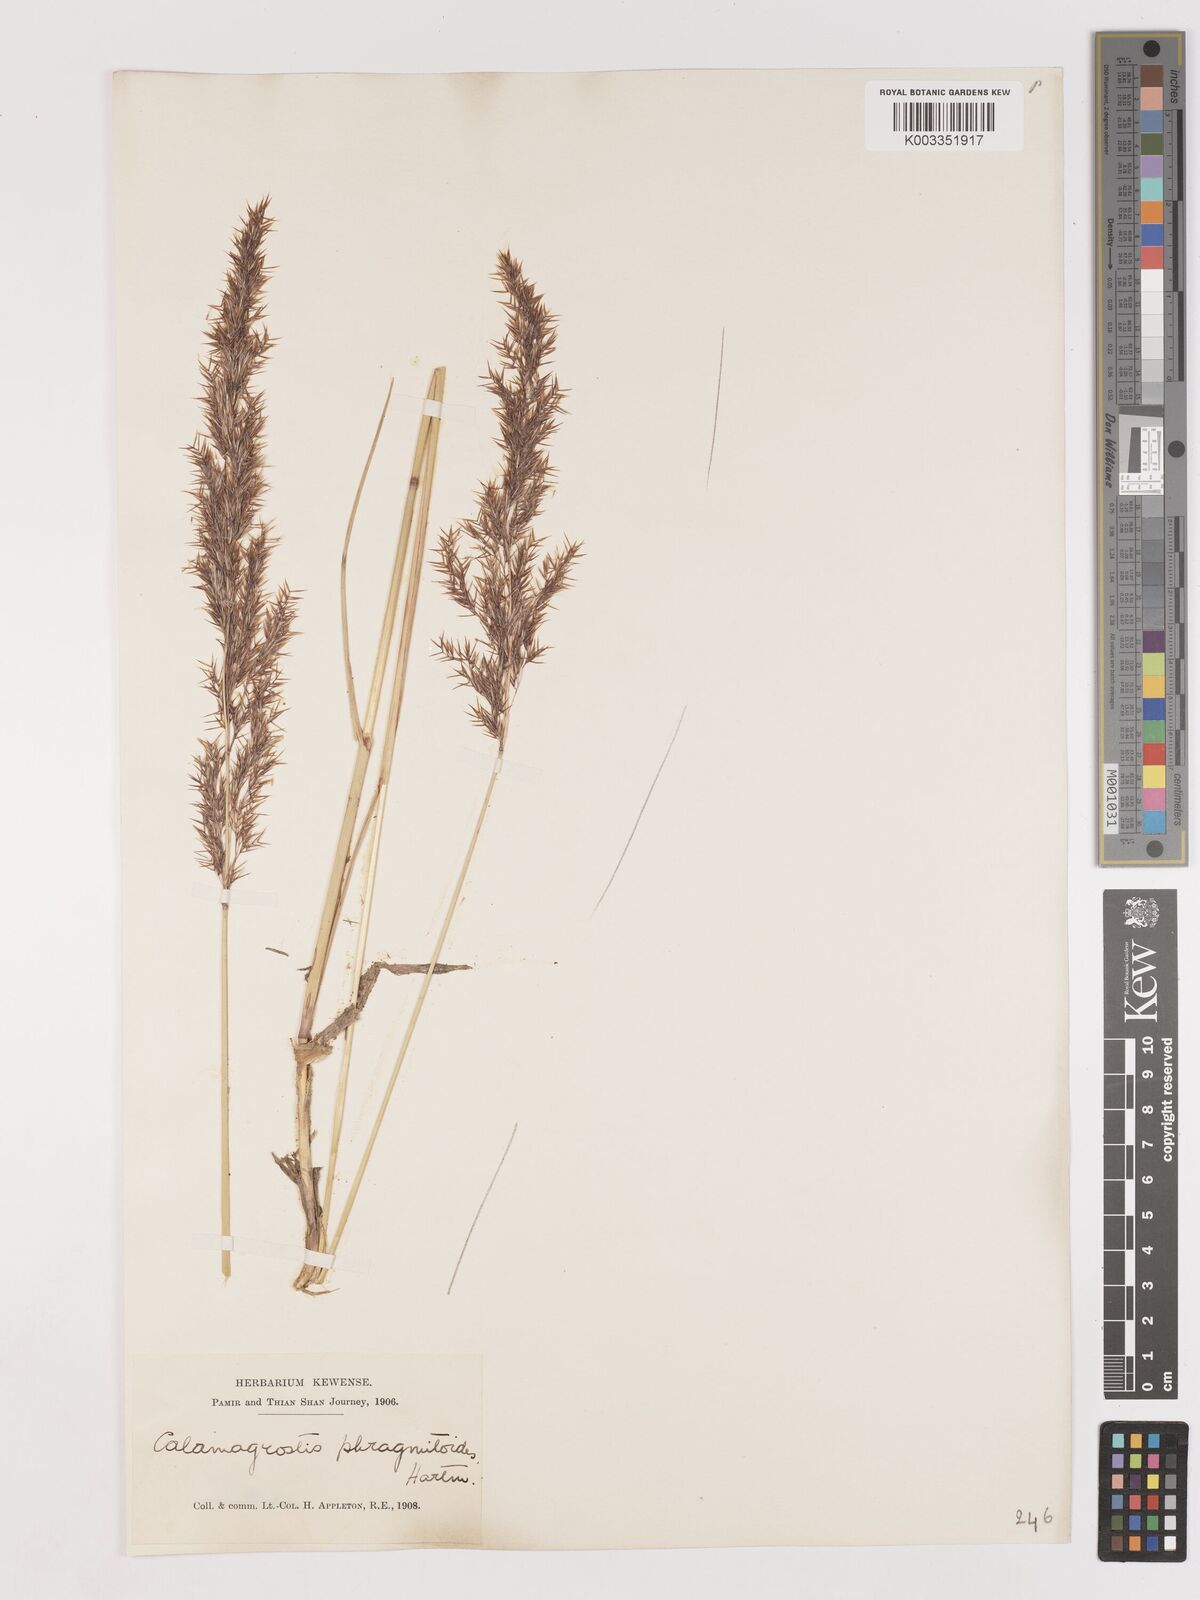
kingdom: Plantae
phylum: Tracheophyta
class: Liliopsida
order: Poales
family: Poaceae
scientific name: Poaceae
